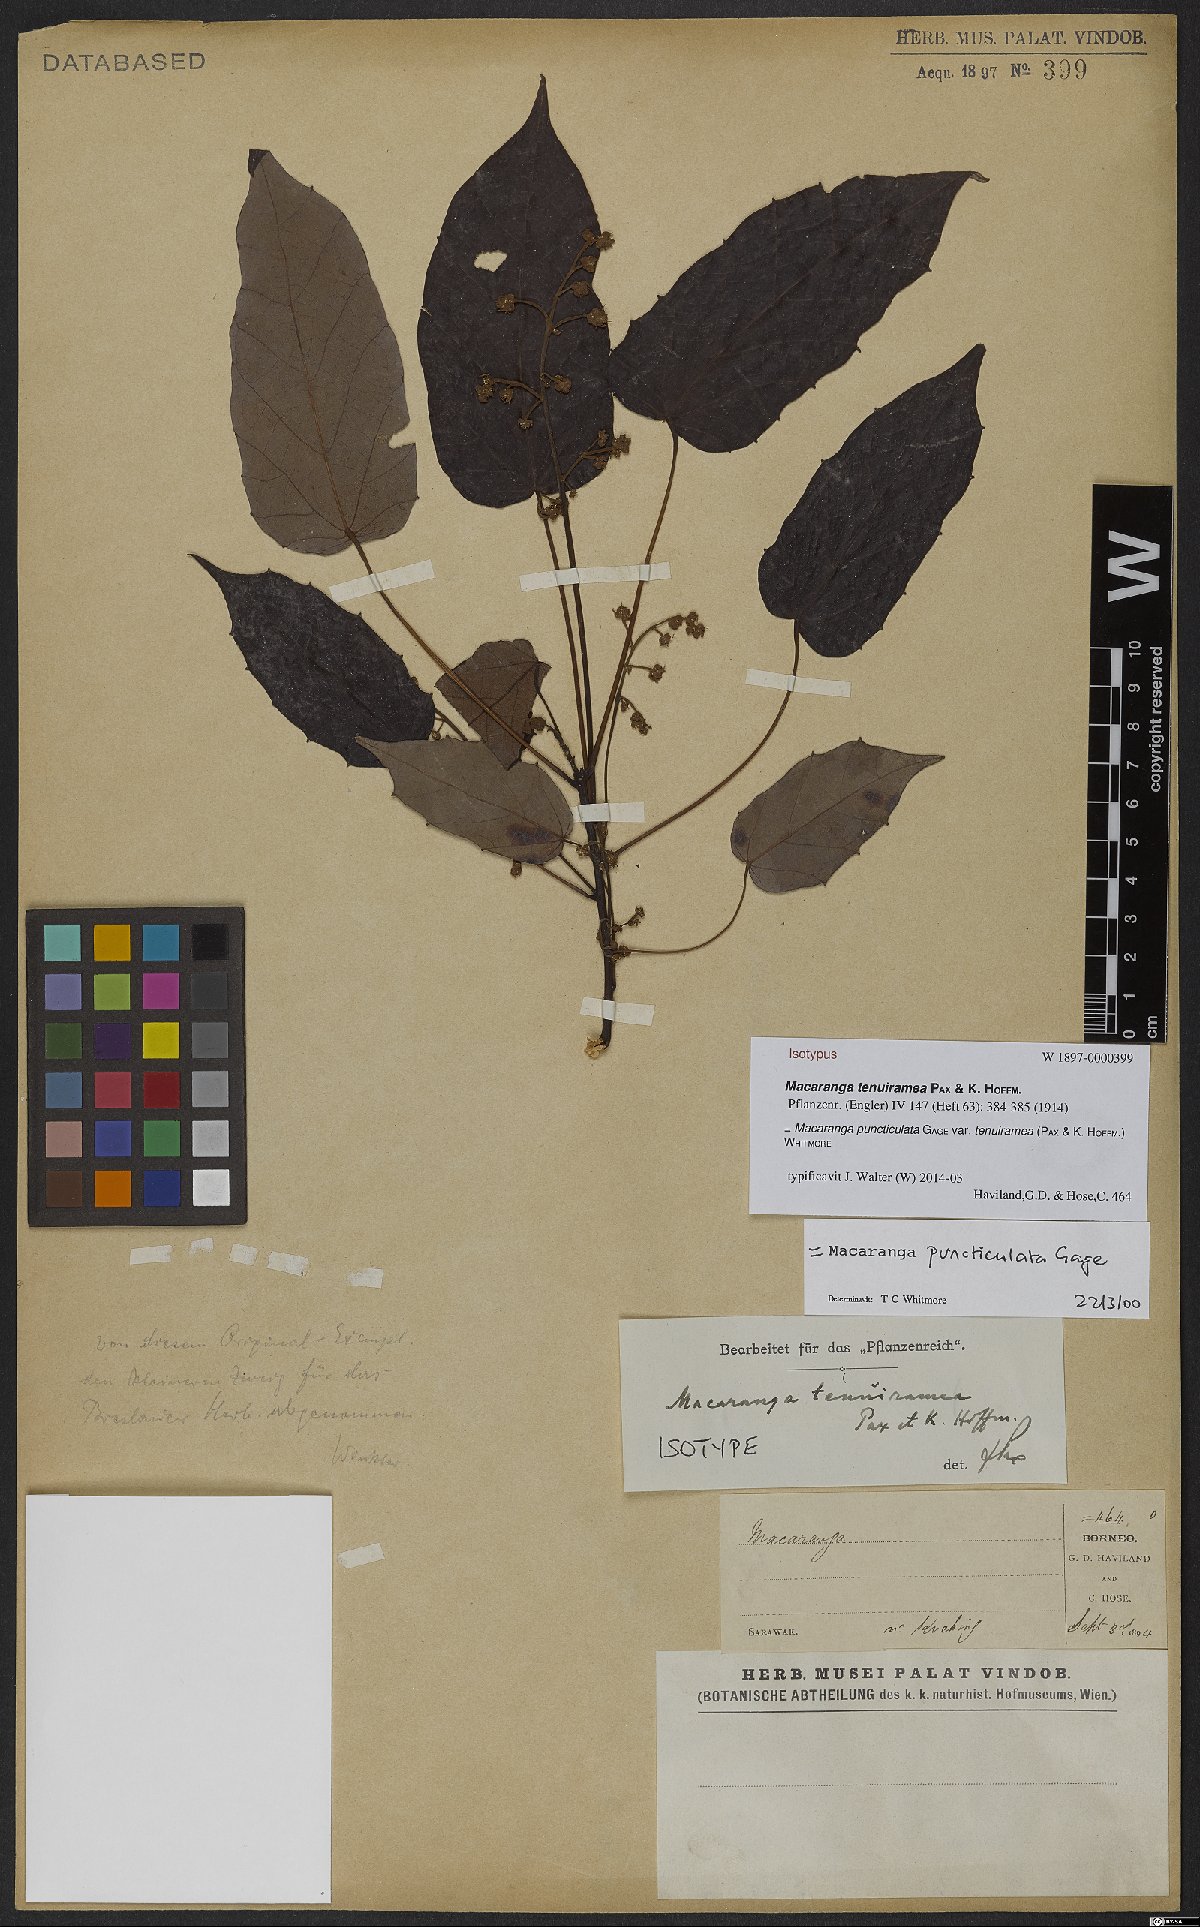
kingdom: Plantae
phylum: Tracheophyta
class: Magnoliopsida
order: Malpighiales
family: Euphorbiaceae
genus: Macaranga
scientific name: Macaranga puncticulata
